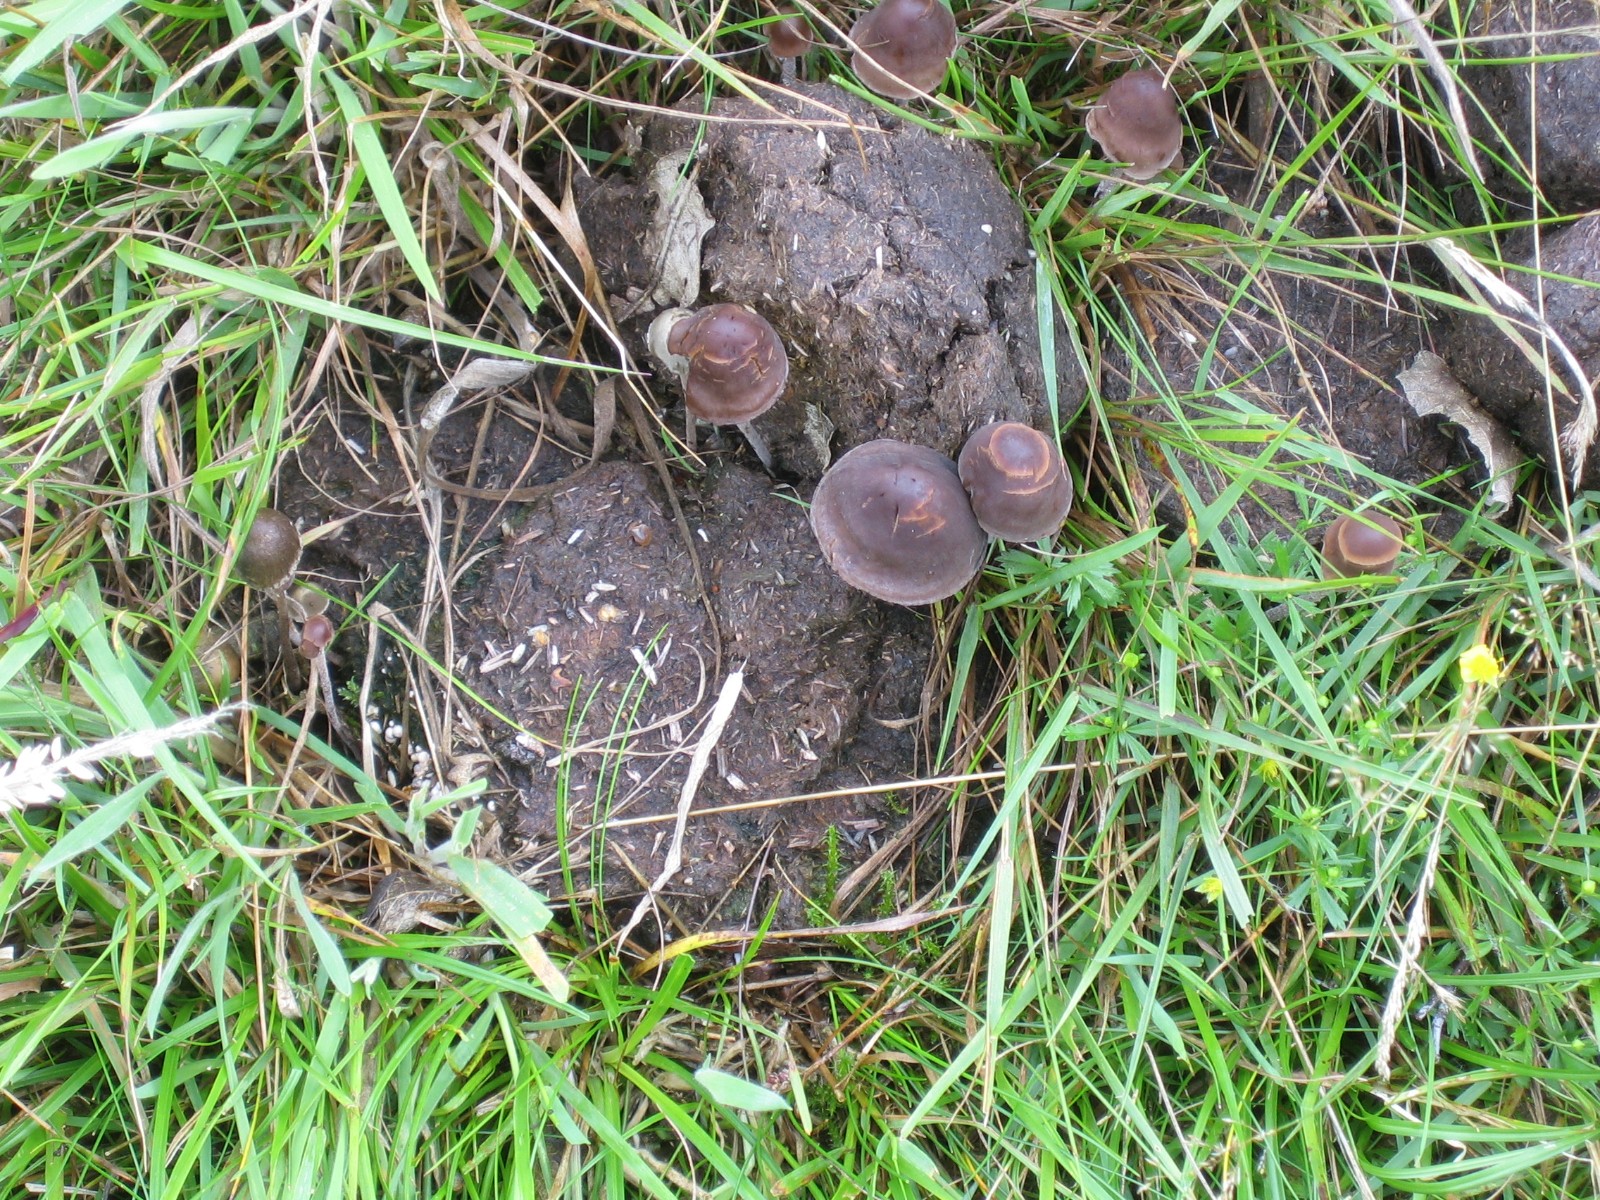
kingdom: Fungi
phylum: Basidiomycota
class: Agaricomycetes
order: Agaricales
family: Bolbitiaceae
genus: Panaeolus
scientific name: Panaeolus
